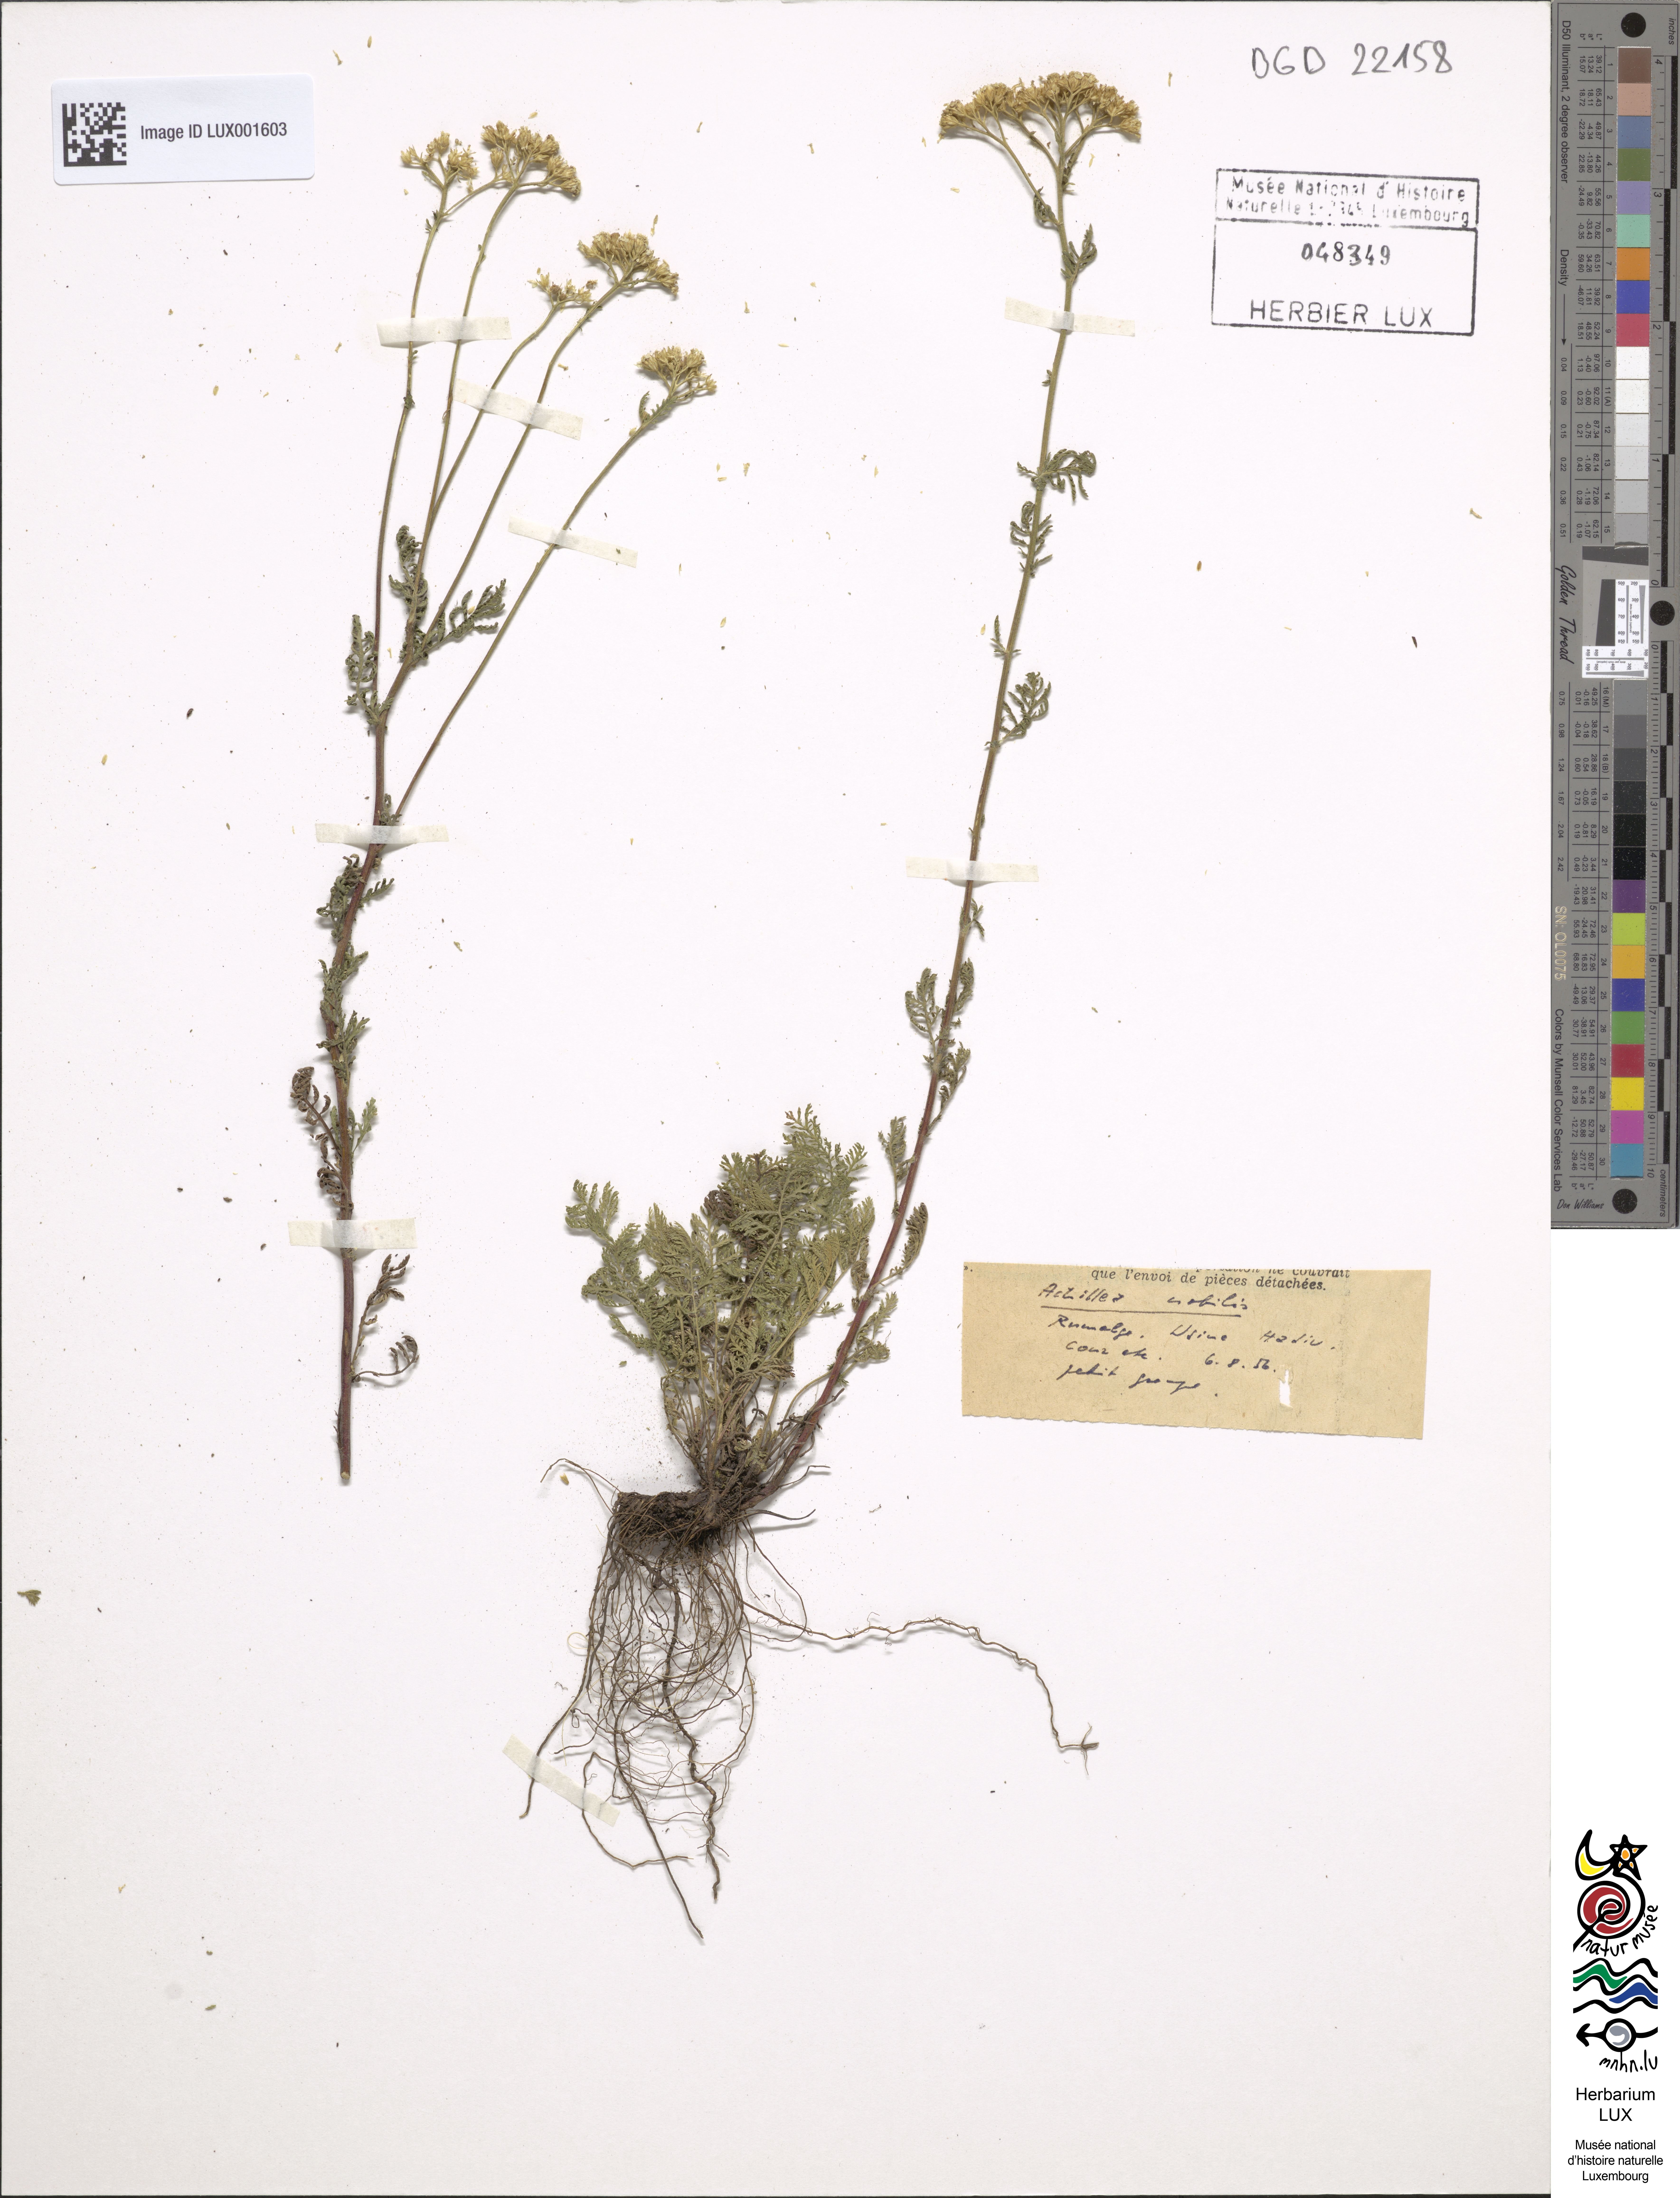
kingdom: Plantae
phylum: Tracheophyta
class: Magnoliopsida
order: Asterales
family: Asteraceae
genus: Achillea
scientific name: Achillea nobilis
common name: Noble yarrow
